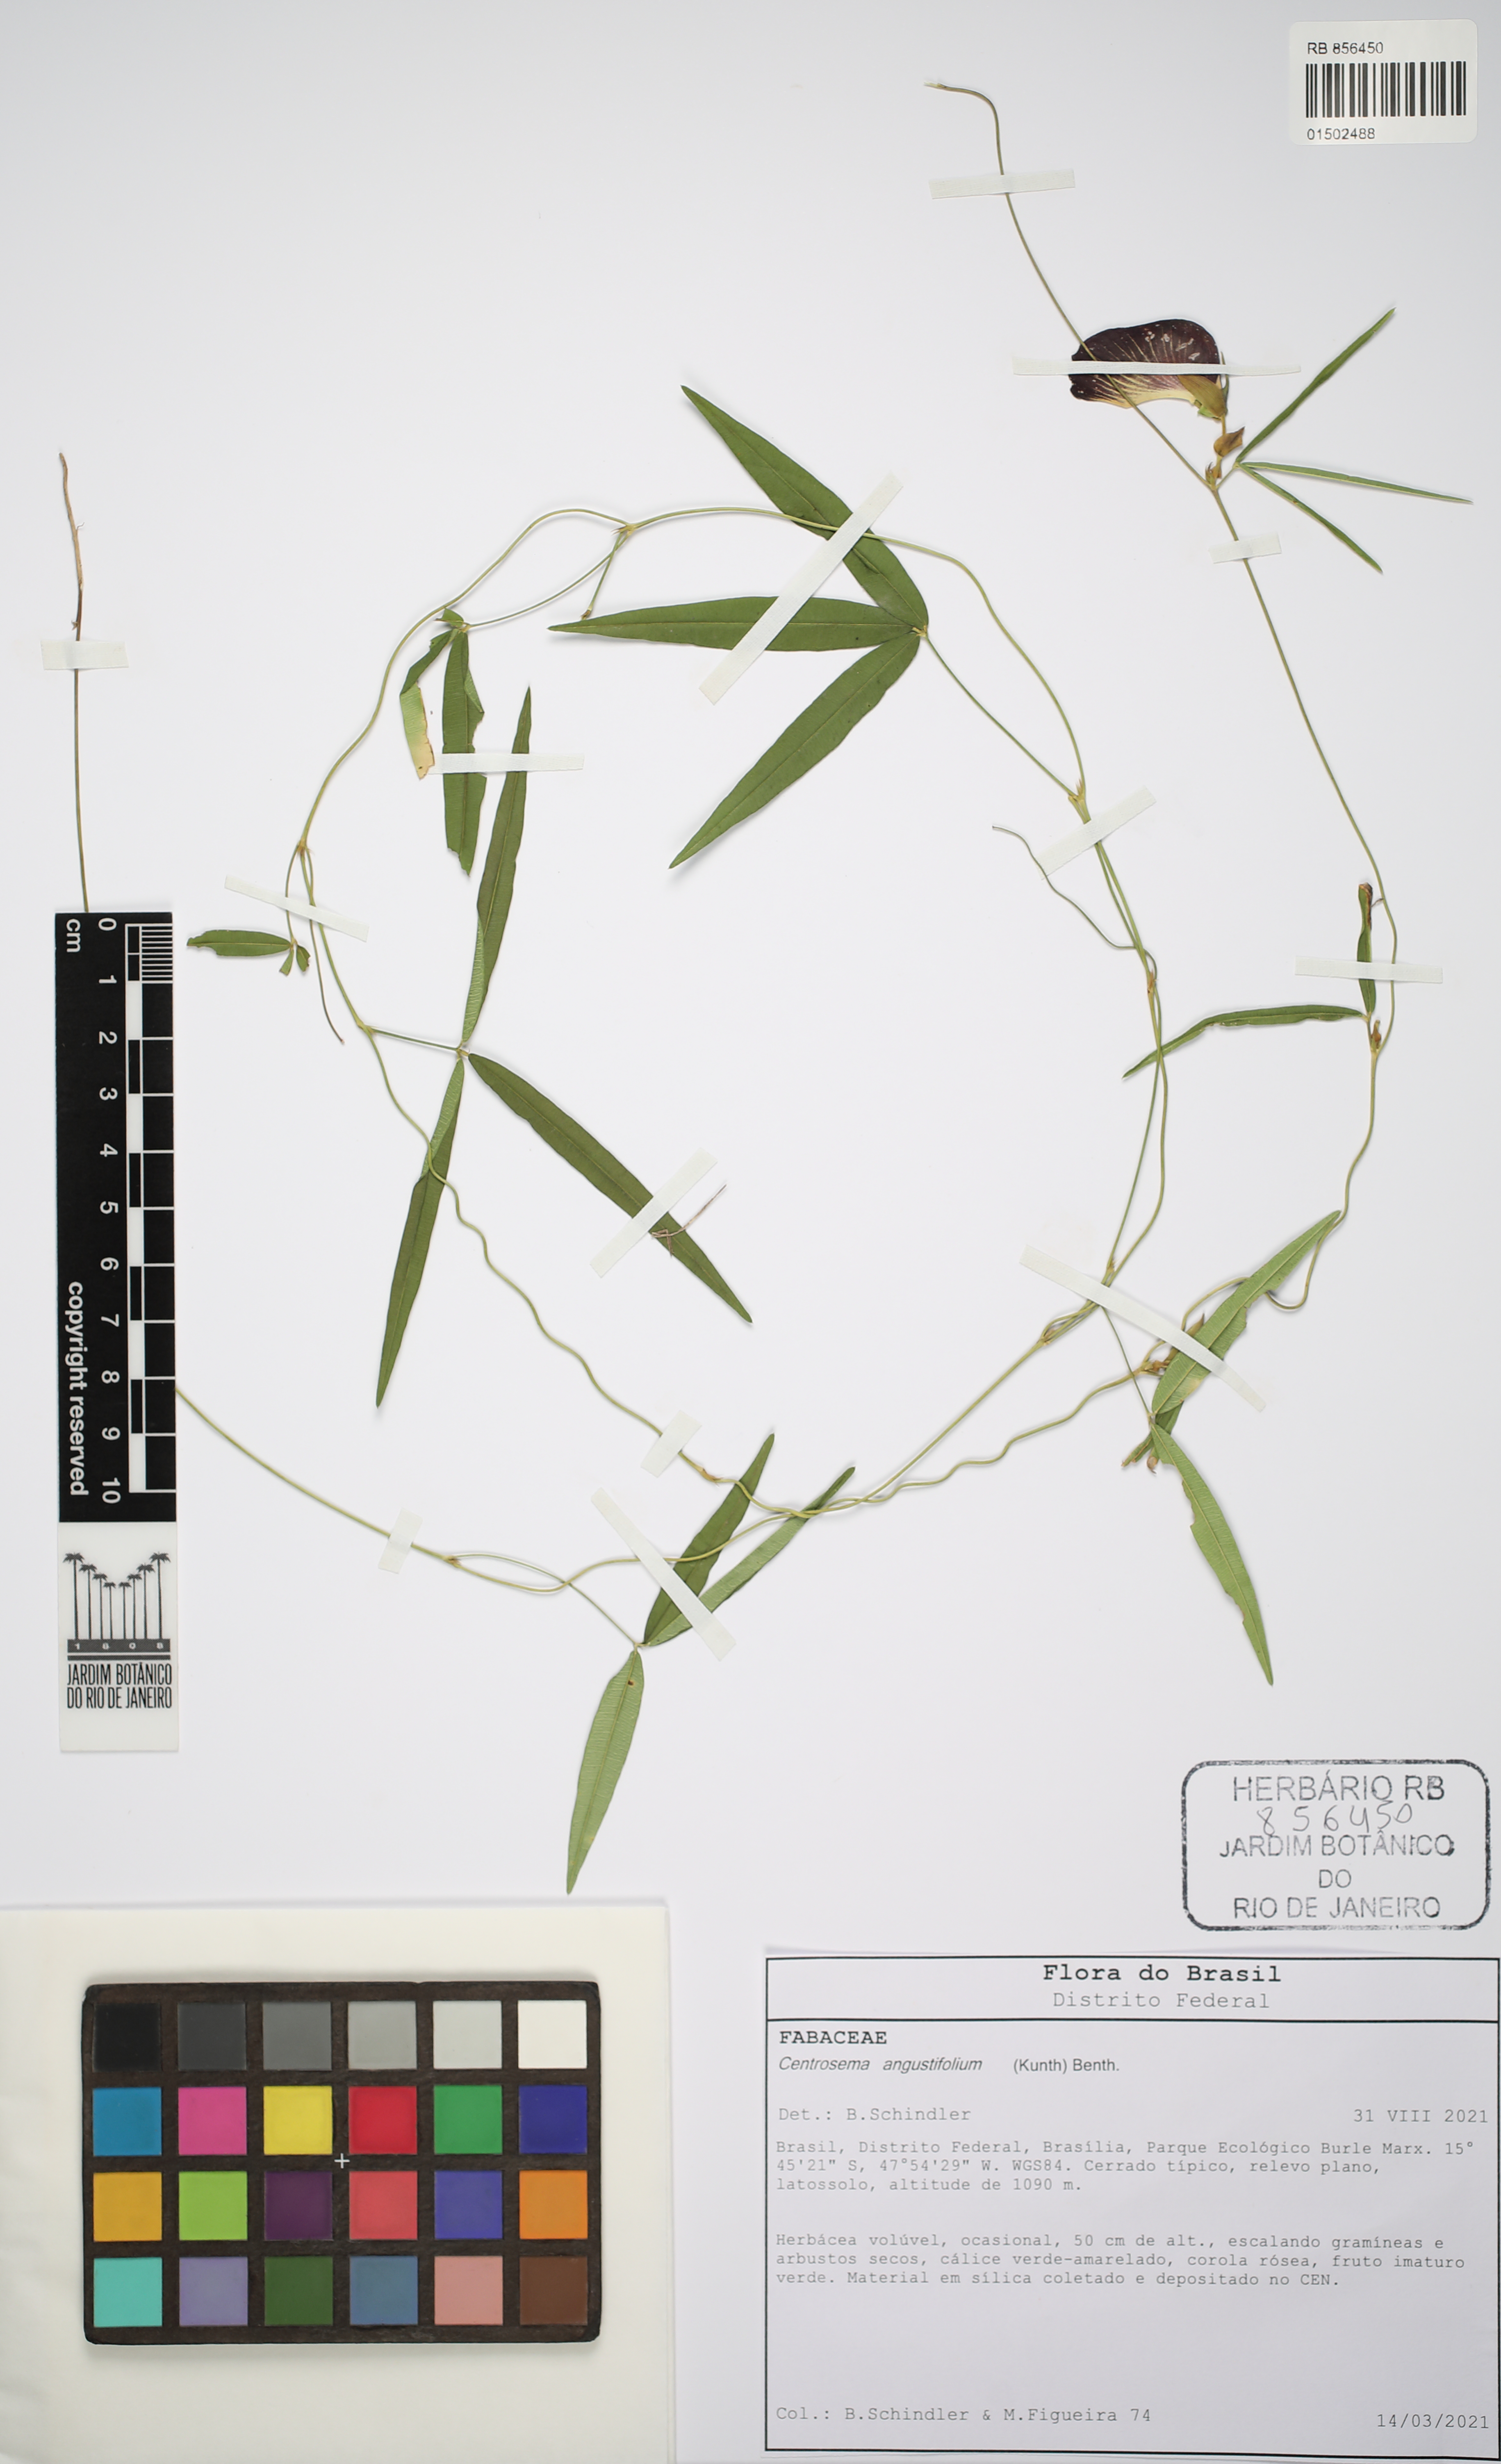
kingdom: Plantae
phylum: Tracheophyta
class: Magnoliopsida
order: Fabales
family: Fabaceae
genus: Centrosema
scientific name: Centrosema angustifolium
